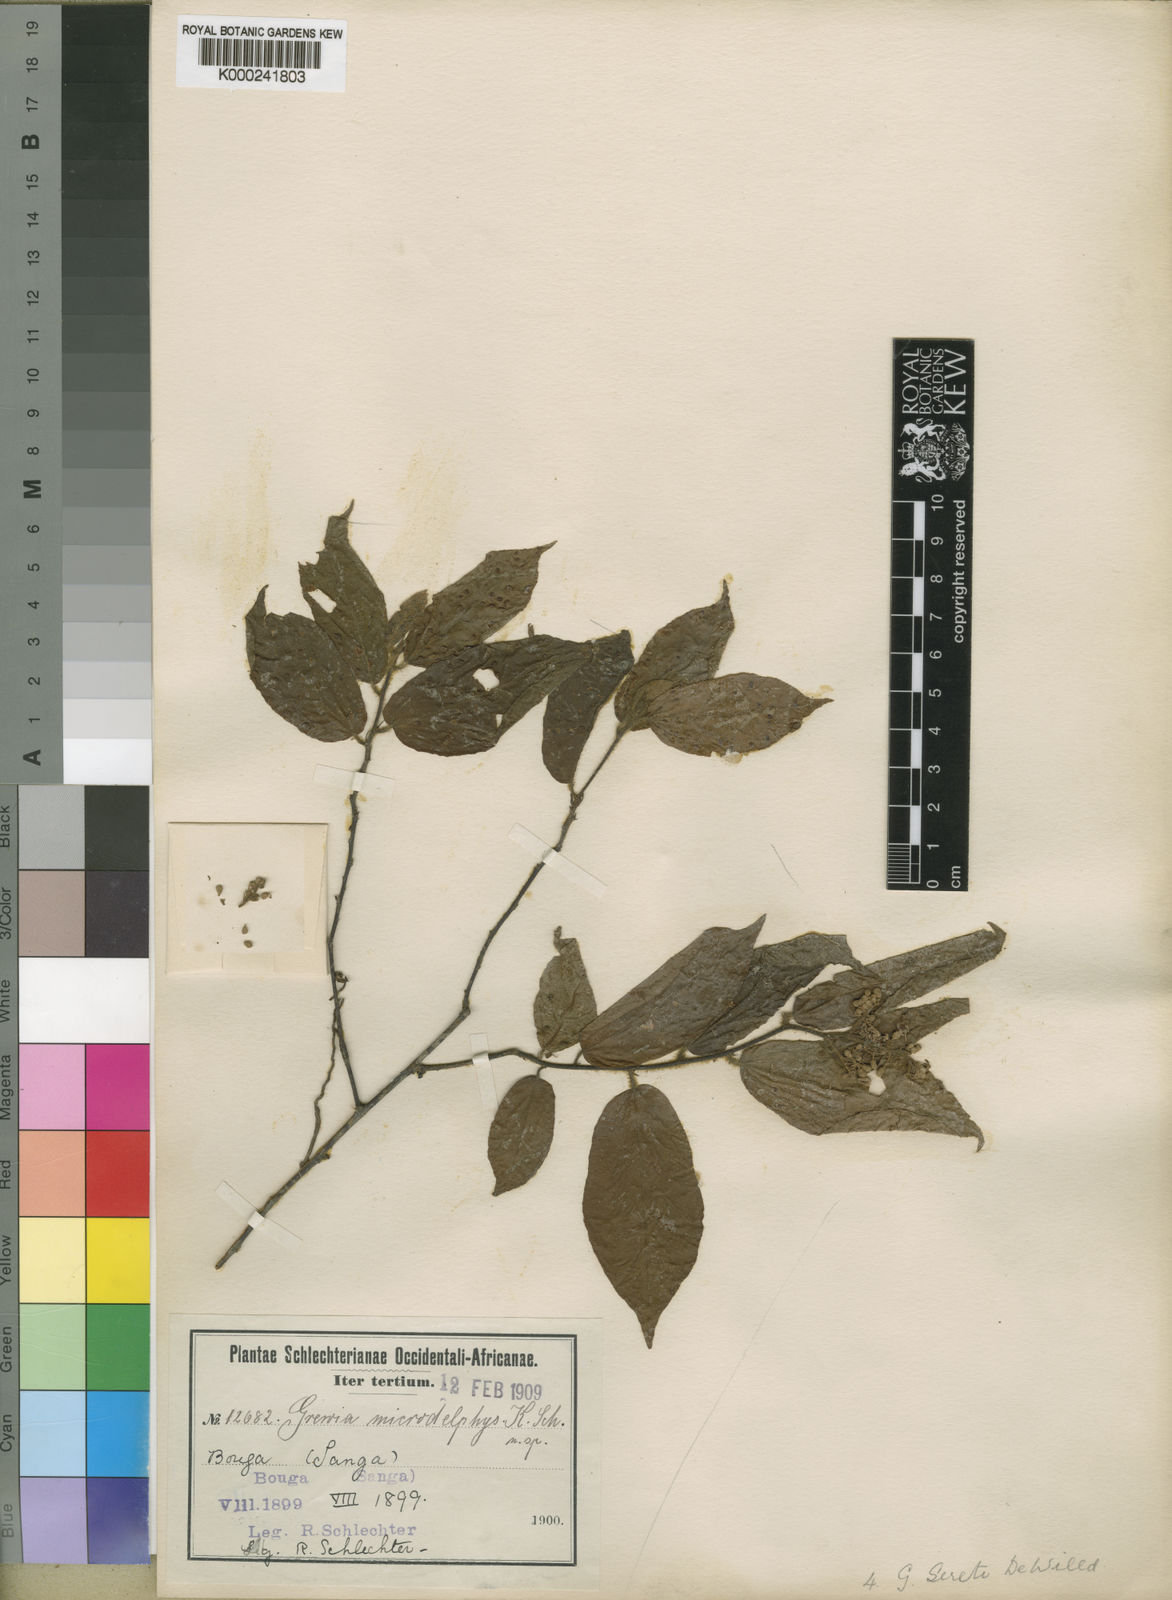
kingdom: Plantae
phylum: Tracheophyta
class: Magnoliopsida
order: Malvales
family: Malvaceae
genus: Microcos
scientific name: Microcos seretii
